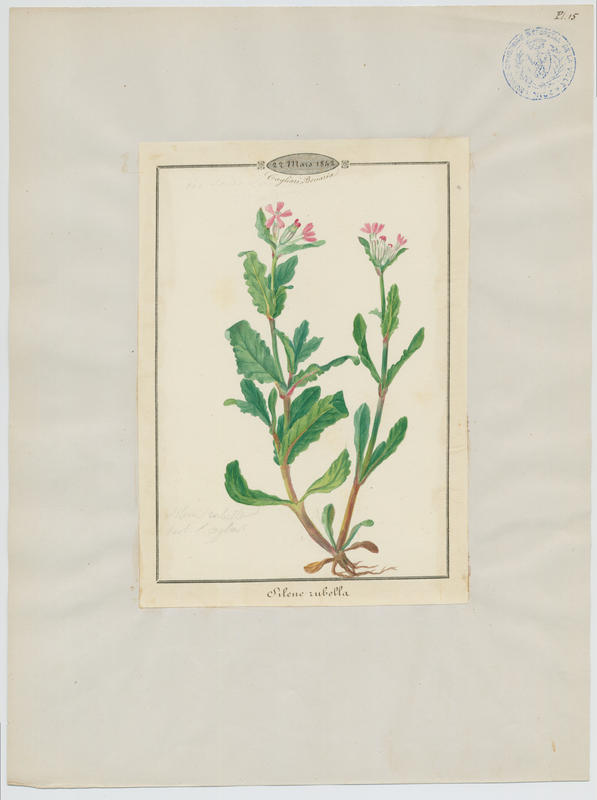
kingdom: Plantae
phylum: Tracheophyta
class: Magnoliopsida
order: Caryophyllales
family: Caryophyllaceae
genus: Silene
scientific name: Silene rubella
